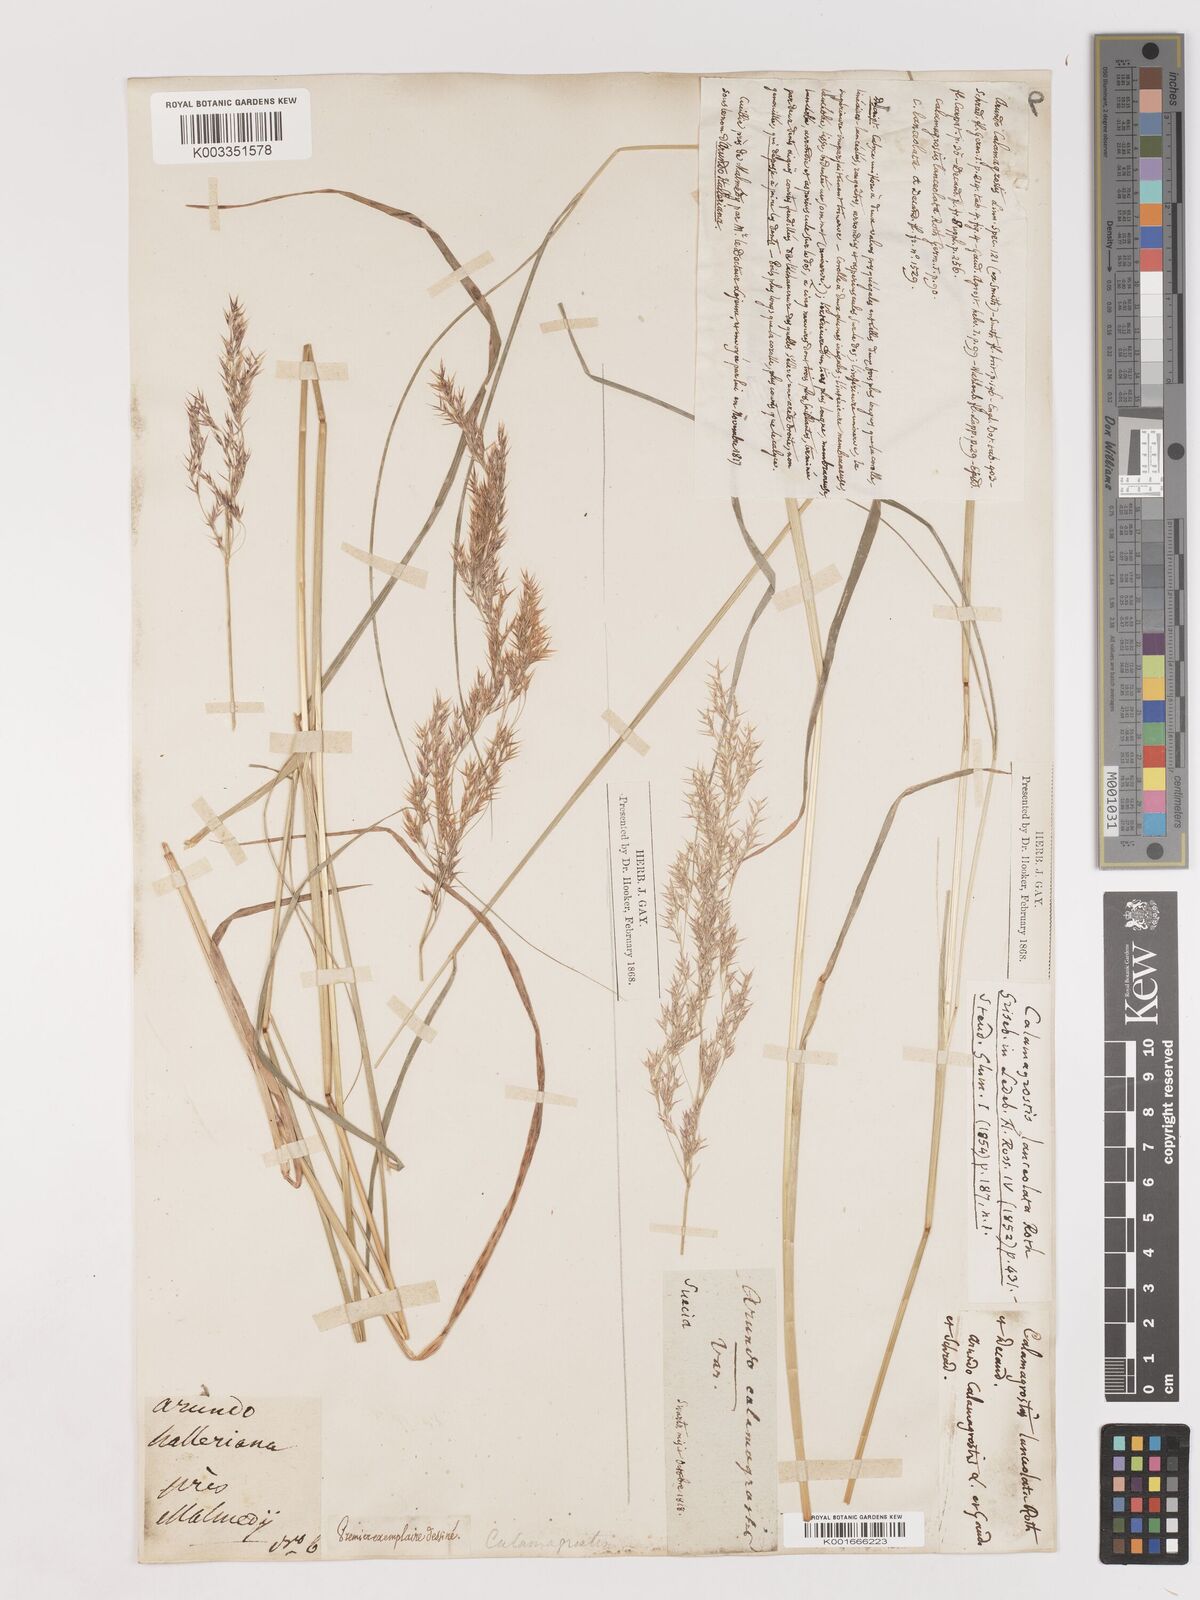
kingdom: Plantae
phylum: Tracheophyta
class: Liliopsida
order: Poales
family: Poaceae
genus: Calamagrostis
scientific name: Calamagrostis canescens
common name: Purple small-reed
